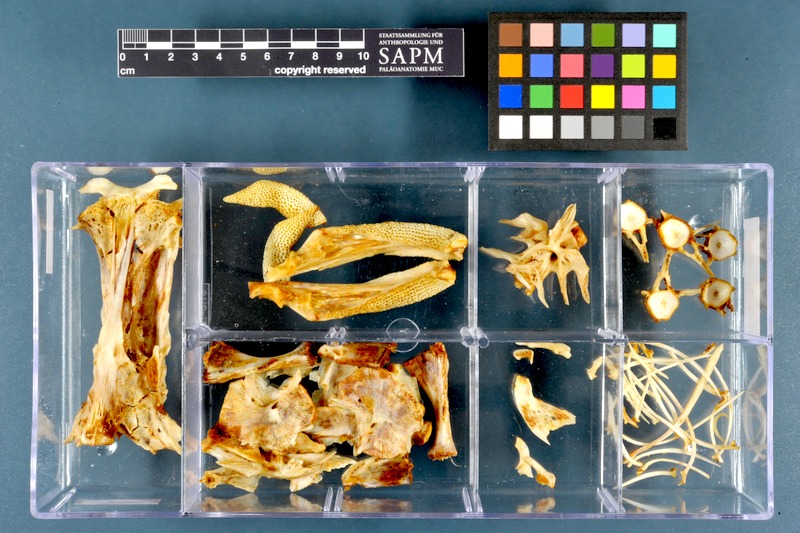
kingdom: Animalia
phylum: Chordata
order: Siluriformes
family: Siluridae
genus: Silurus
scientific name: Silurus triostegus
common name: Mesopotamian catfish
